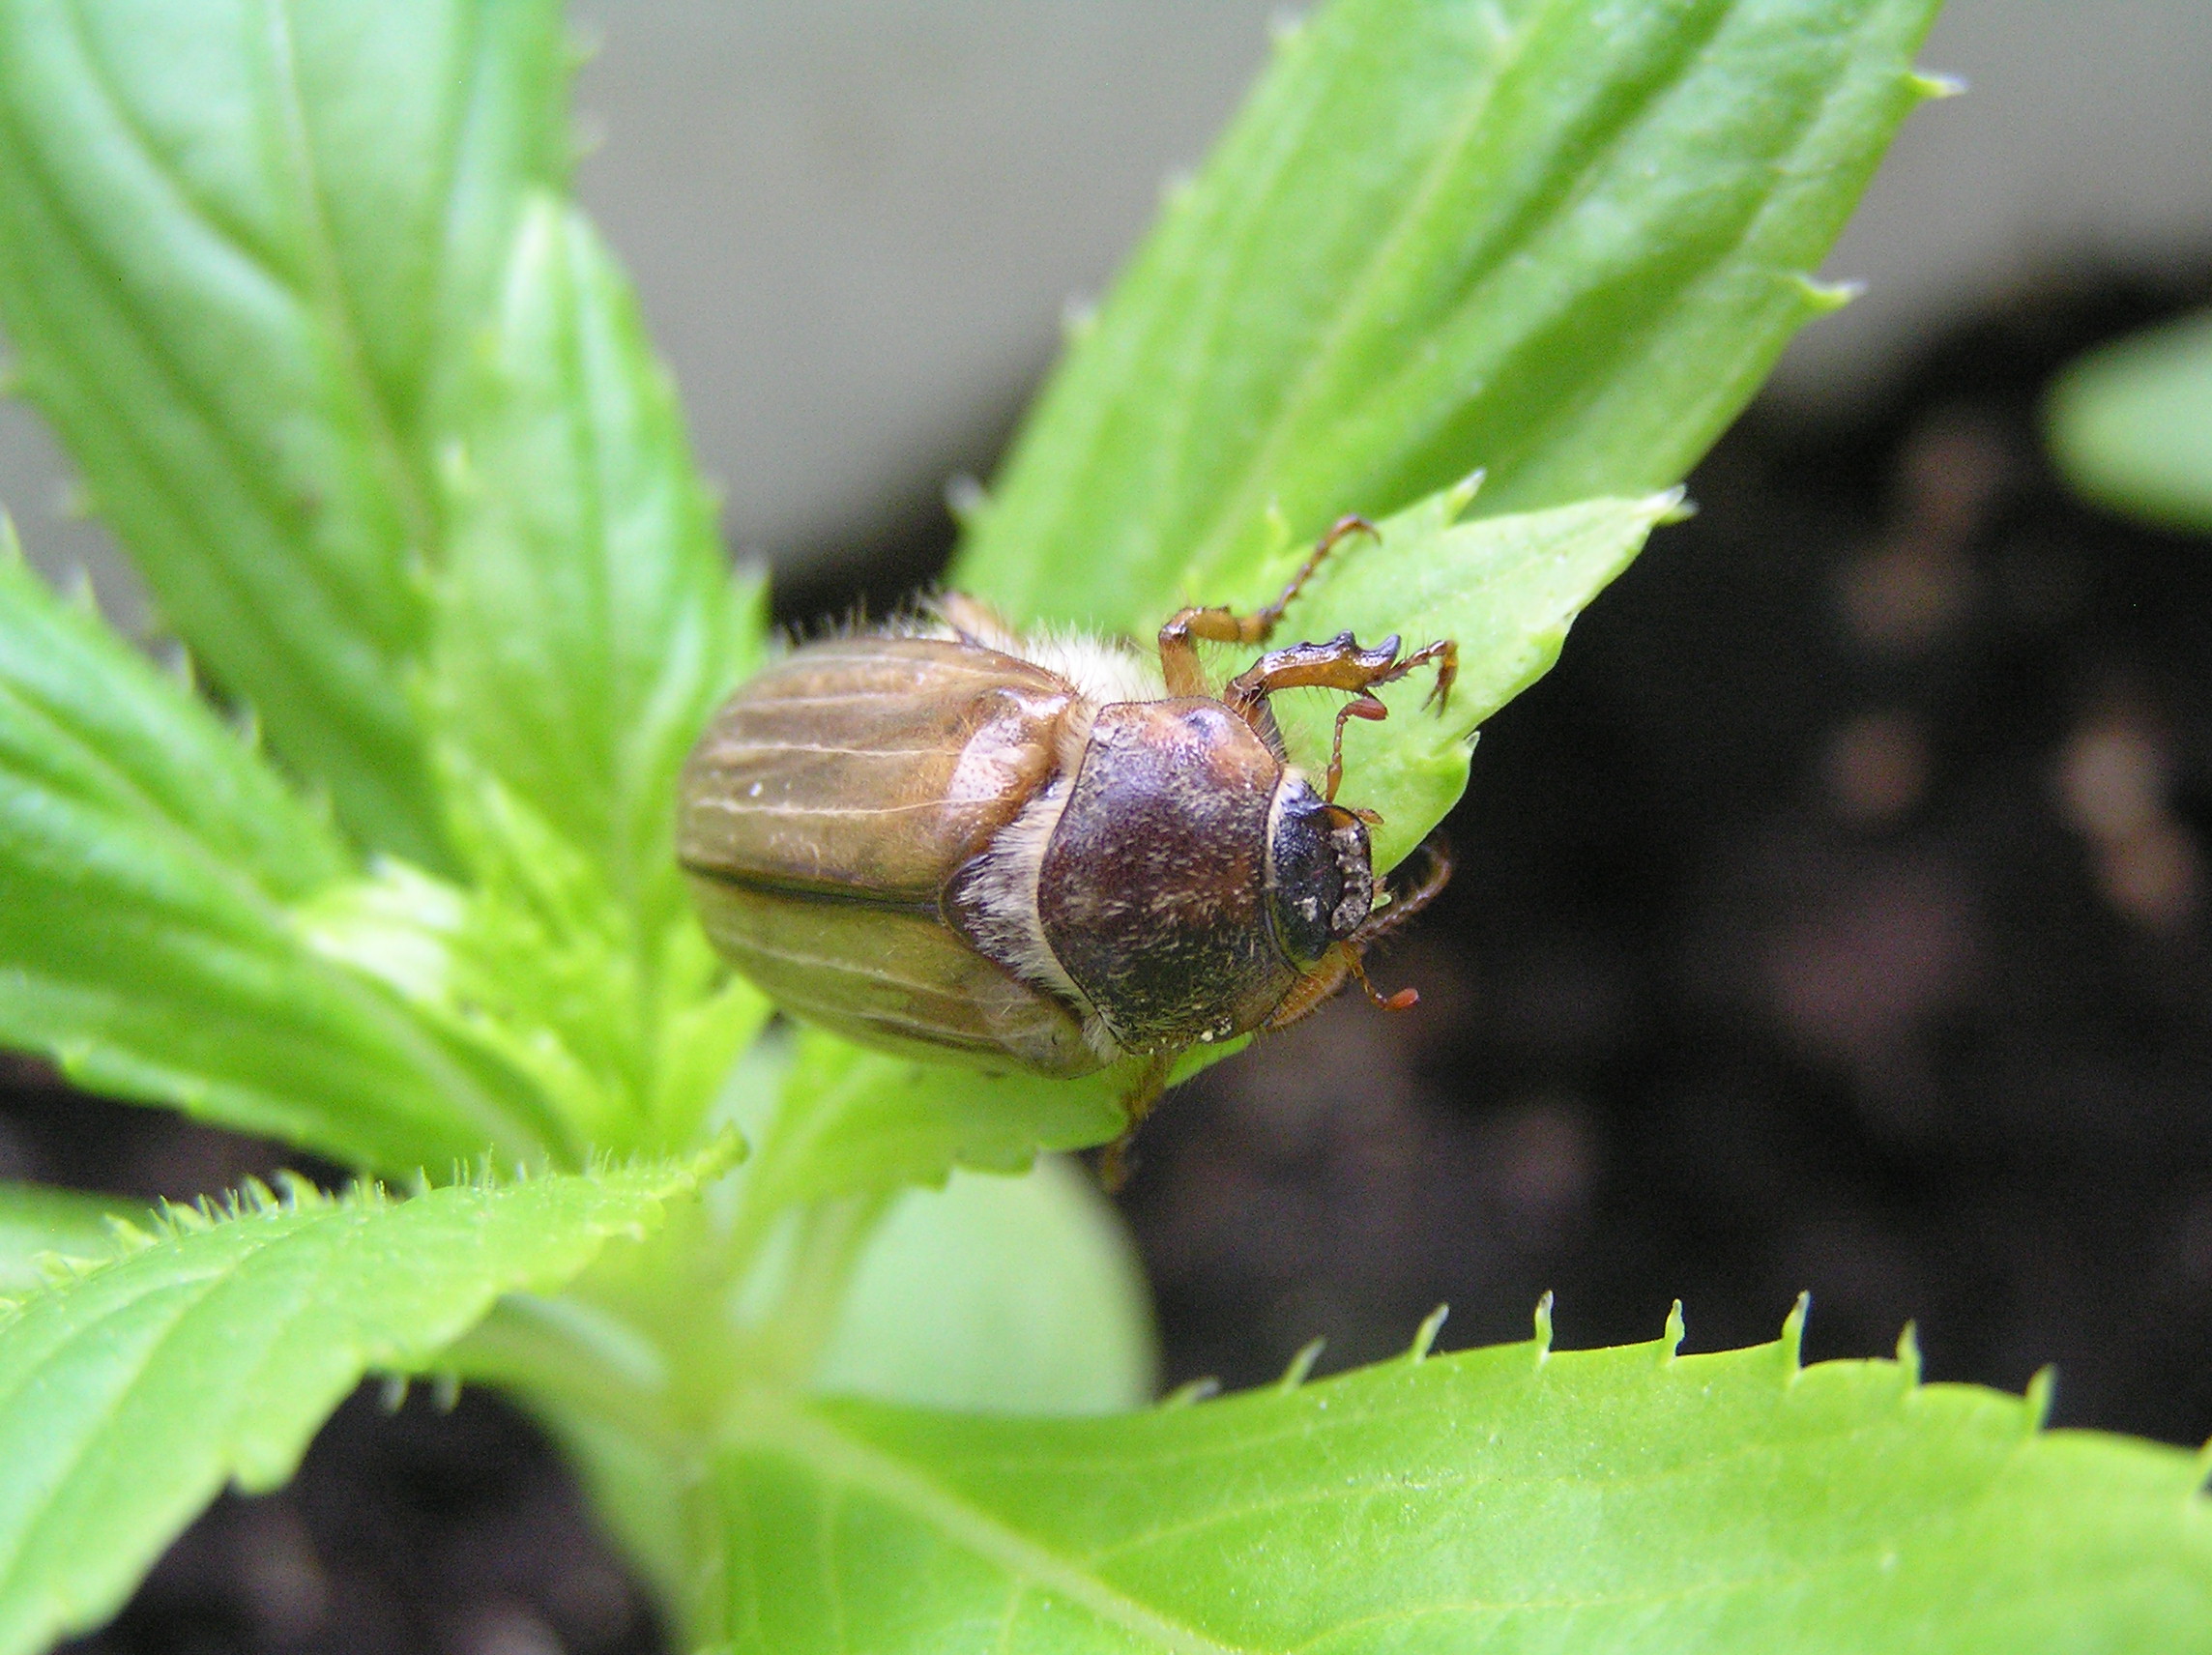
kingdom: Animalia
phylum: Arthropoda
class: Insecta
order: Coleoptera
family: Scarabaeidae
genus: Amphimallon
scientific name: Amphimallon solstitiale
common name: Summer chafer
